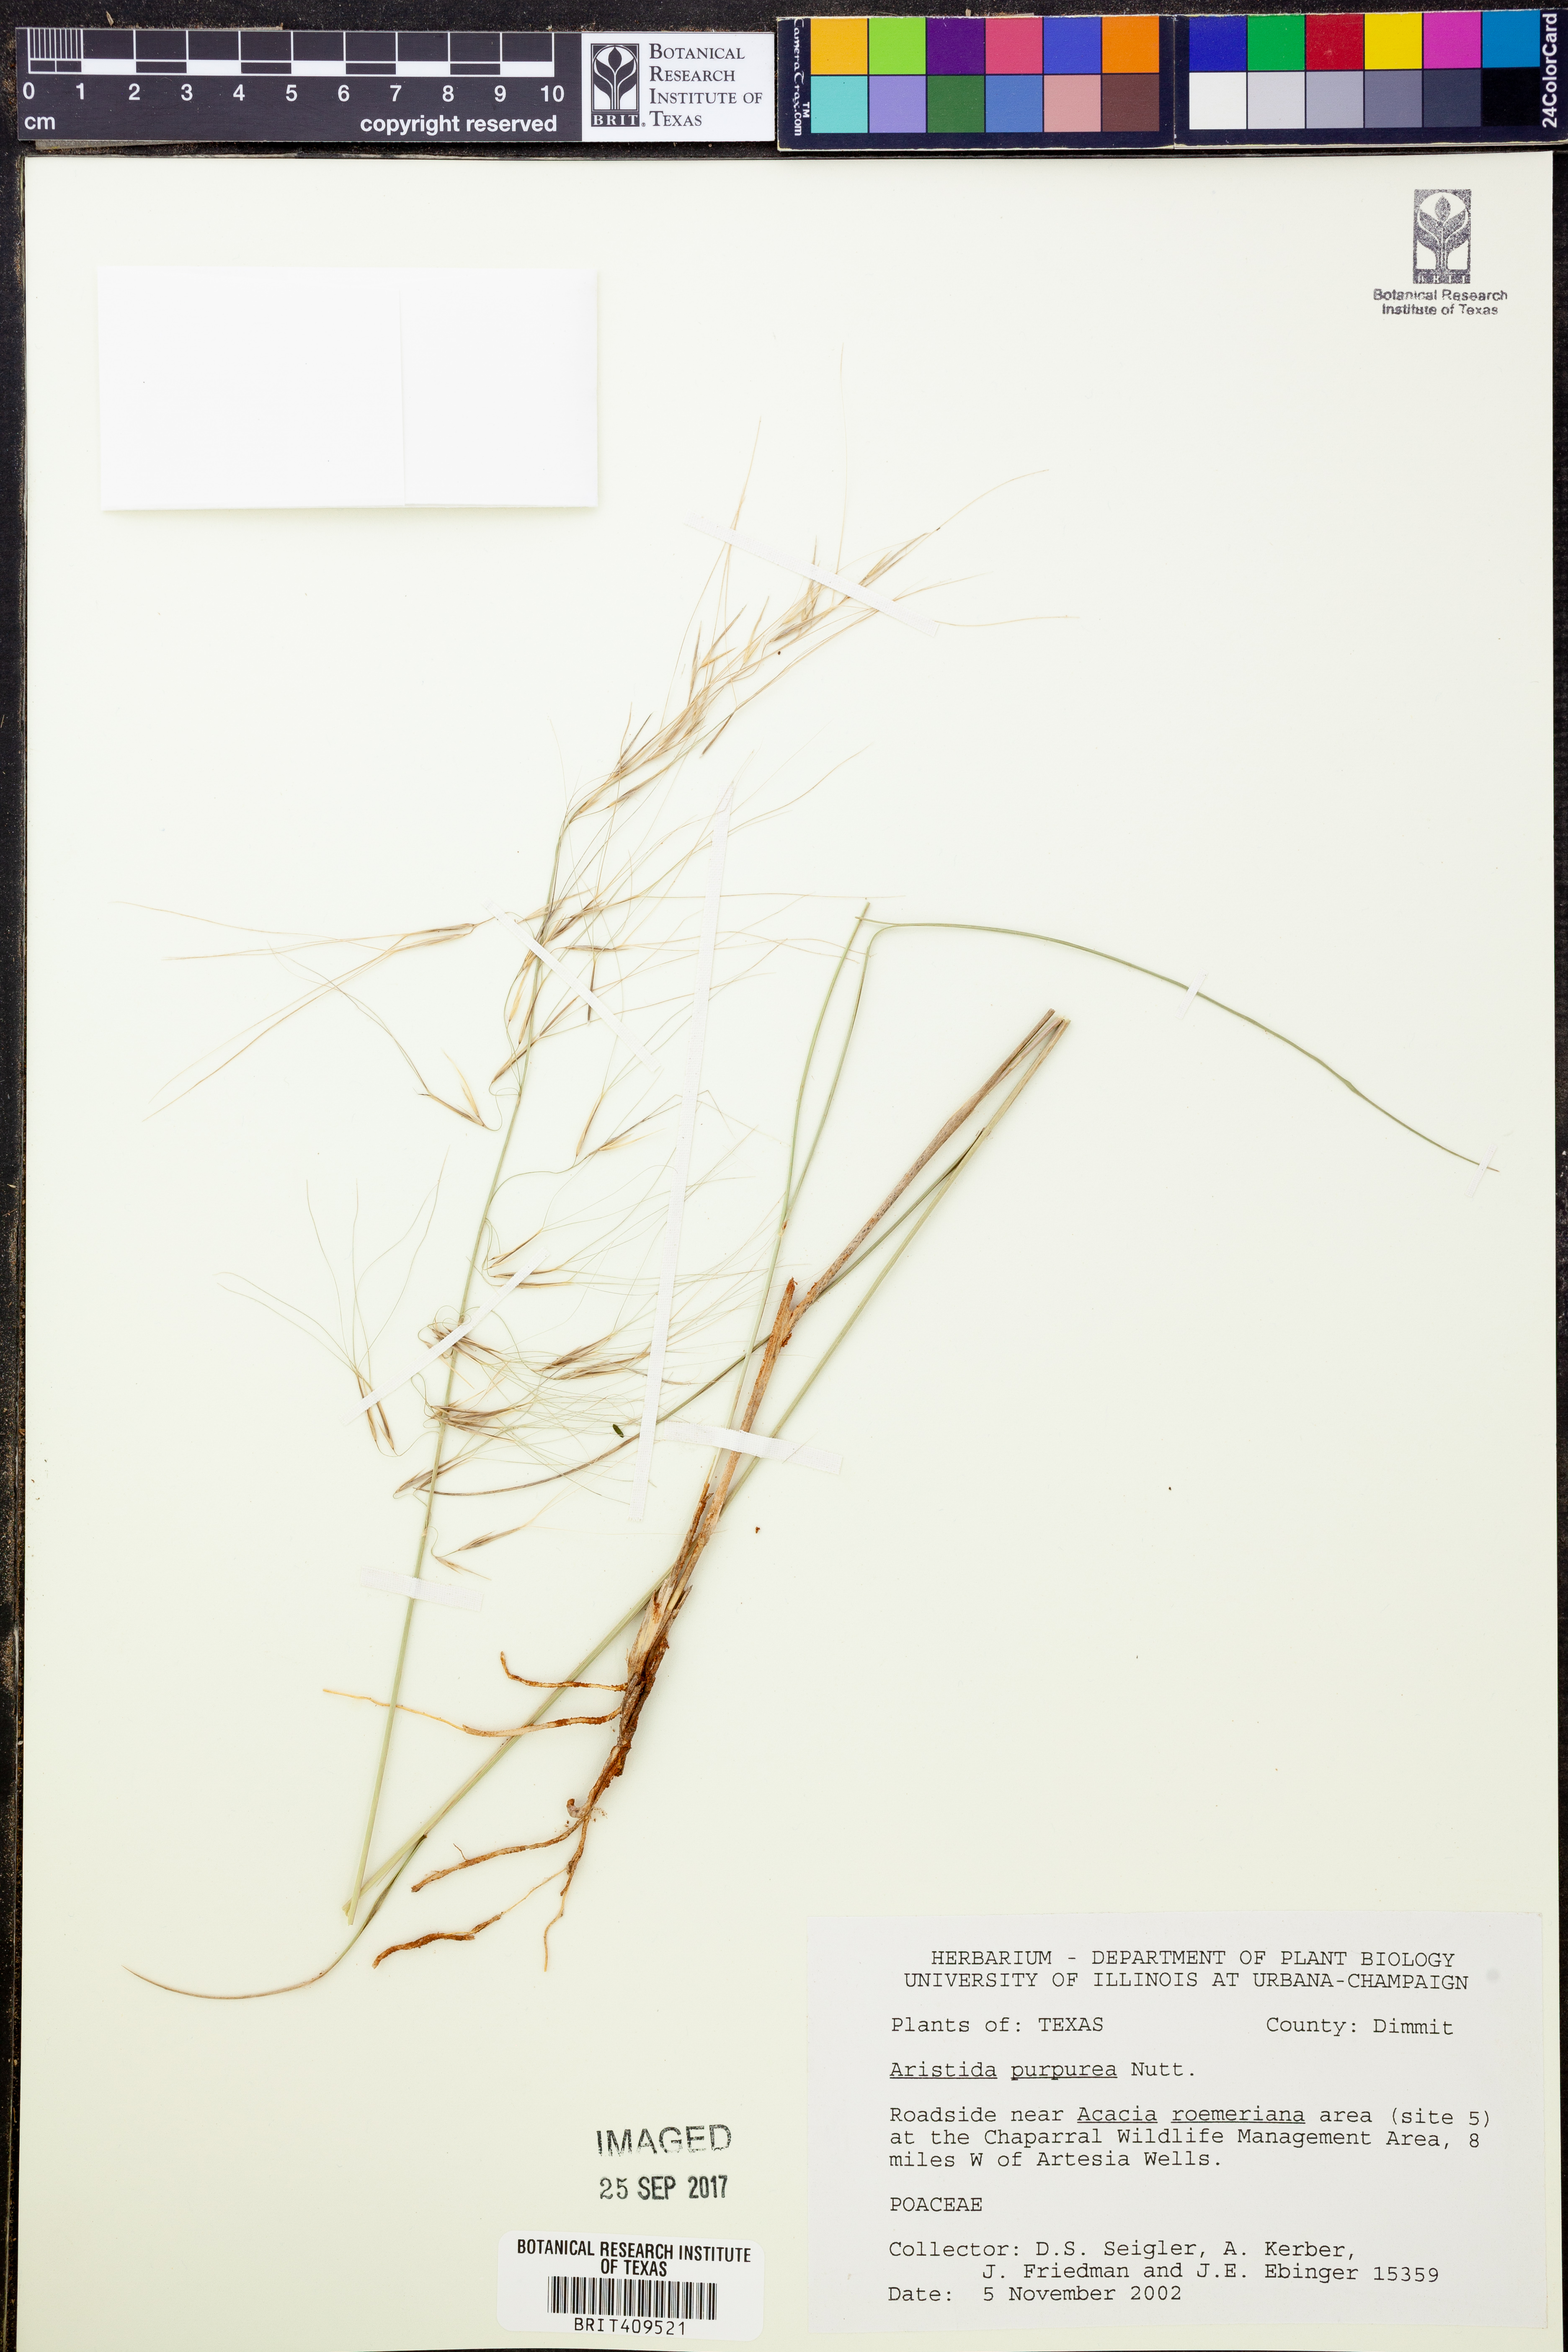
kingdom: Plantae
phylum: Tracheophyta
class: Liliopsida
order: Poales
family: Poaceae
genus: Aristida
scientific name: Aristida purpurea
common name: Purple threeawn
